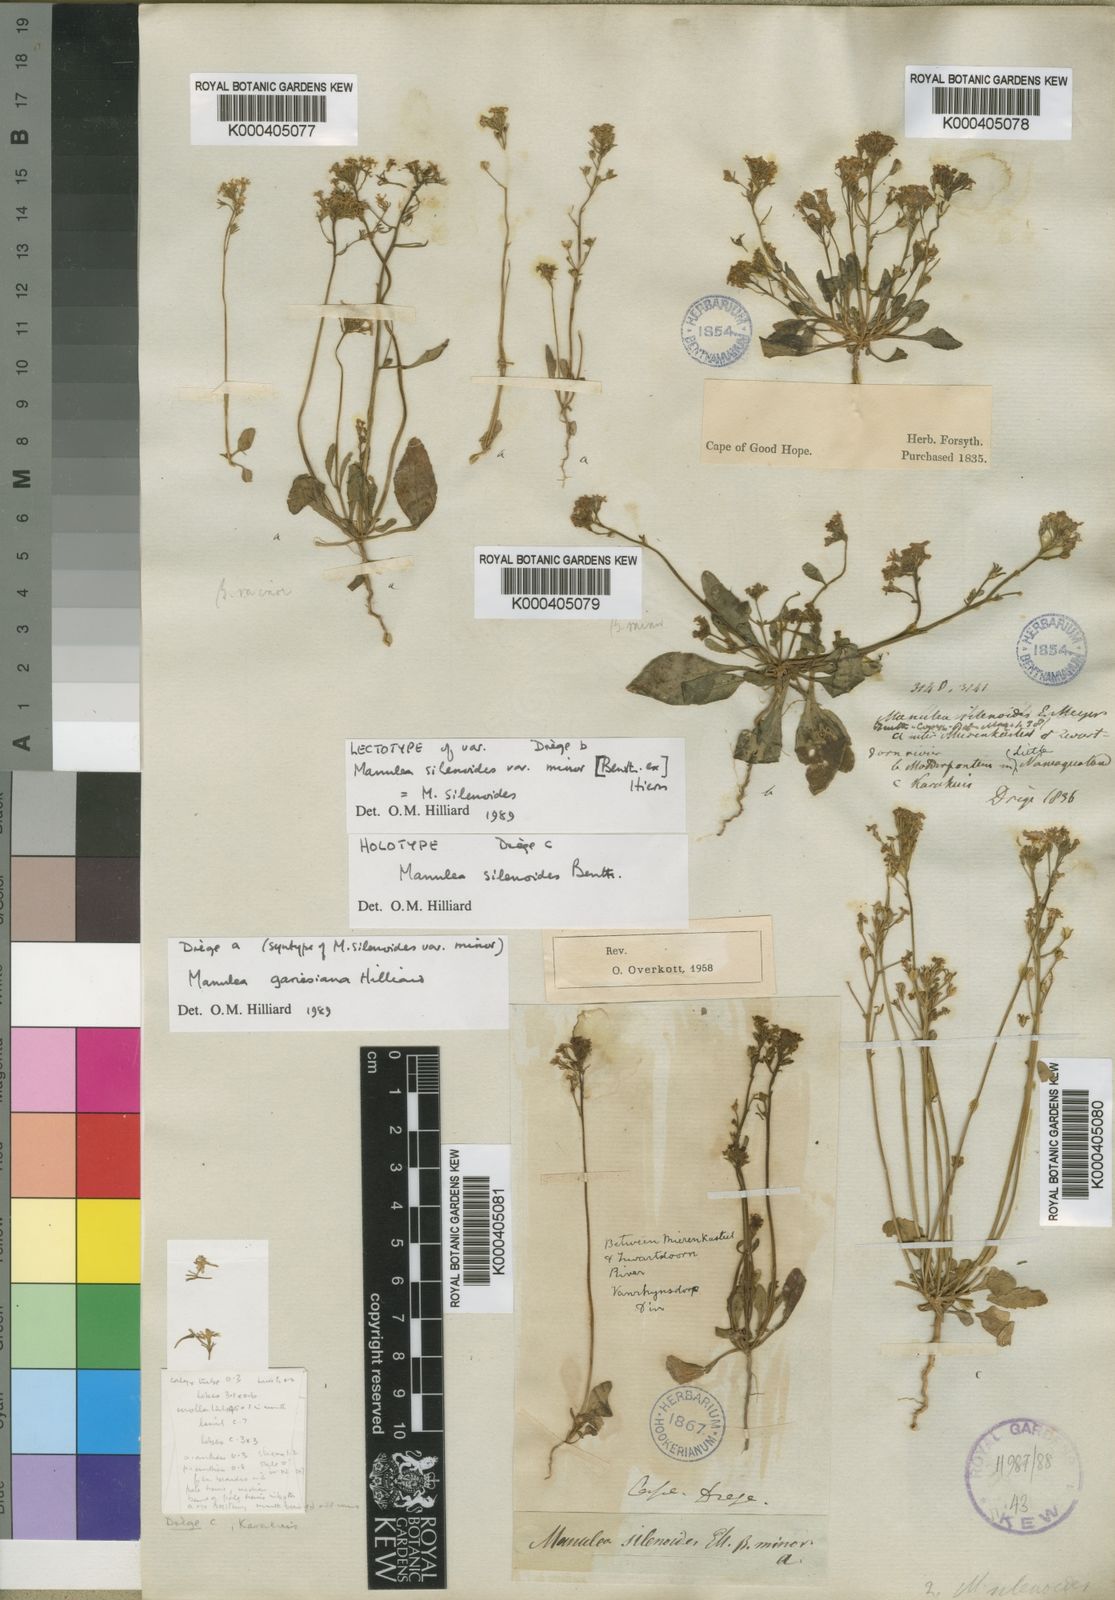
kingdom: Plantae
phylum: Tracheophyta
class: Magnoliopsida
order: Lamiales
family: Scrophulariaceae
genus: Manulea
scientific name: Manulea silenoides
